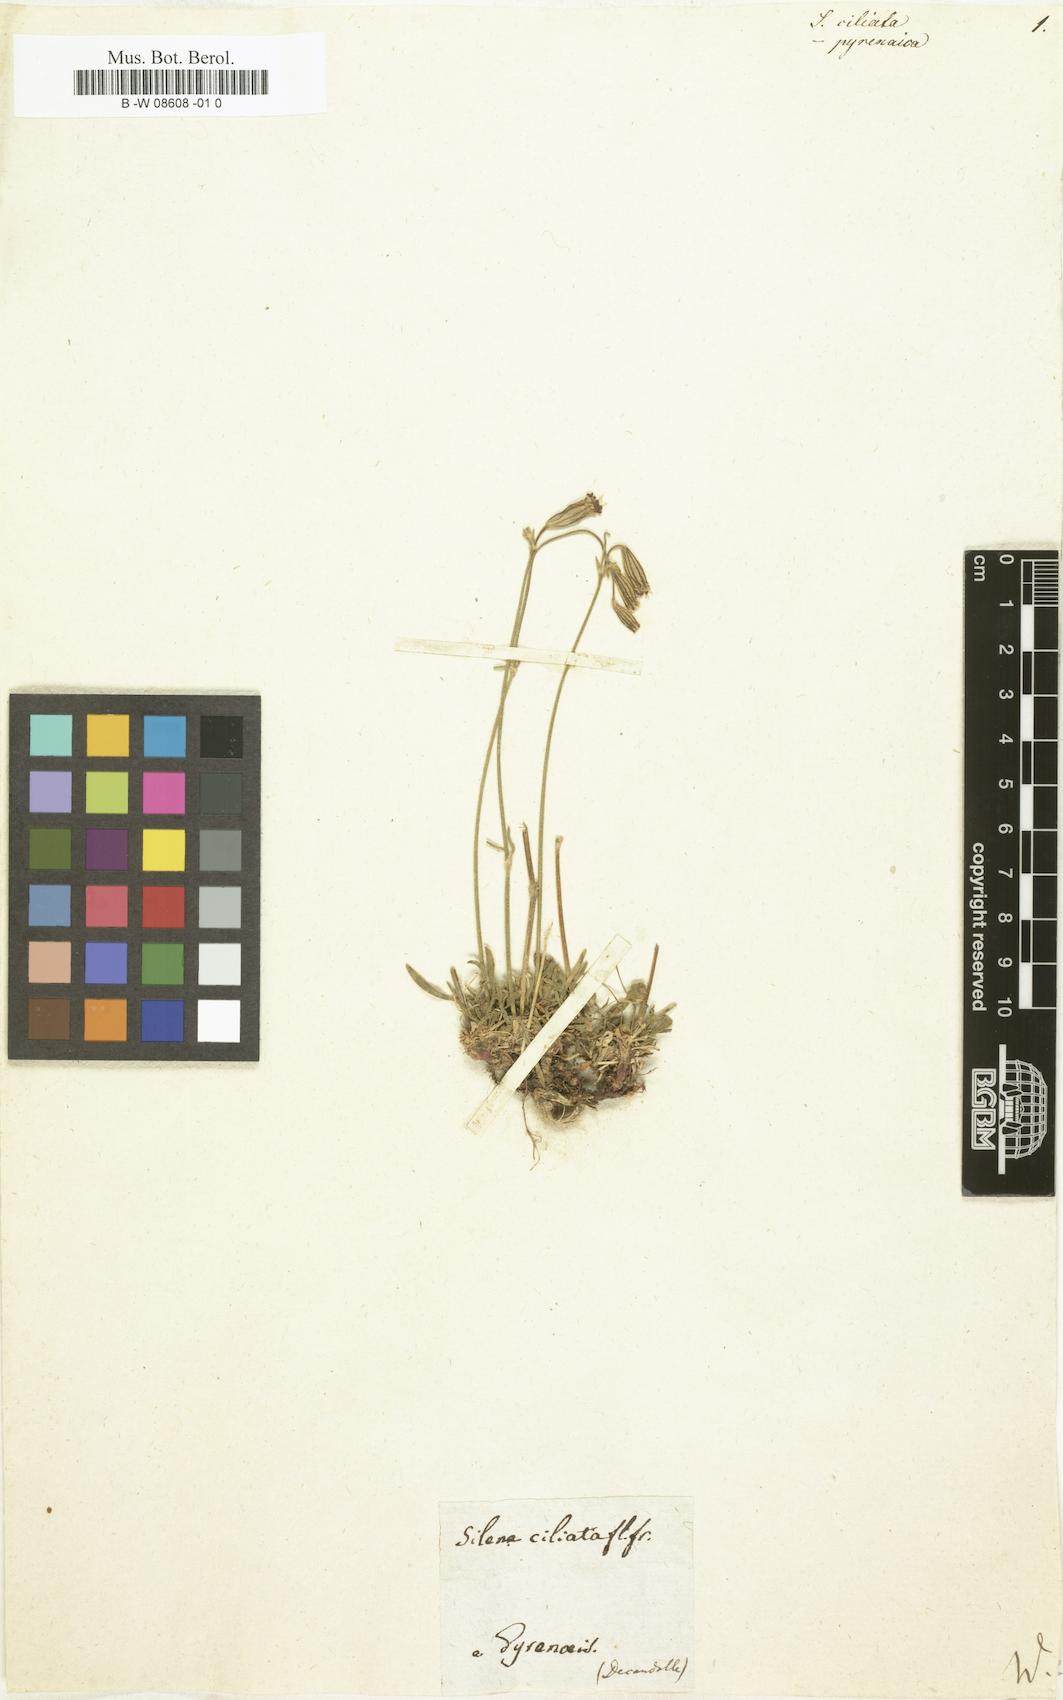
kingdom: Plantae
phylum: Tracheophyta
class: Magnoliopsida
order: Caryophyllales
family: Caryophyllaceae
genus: Silene
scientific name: Silene ciliata
